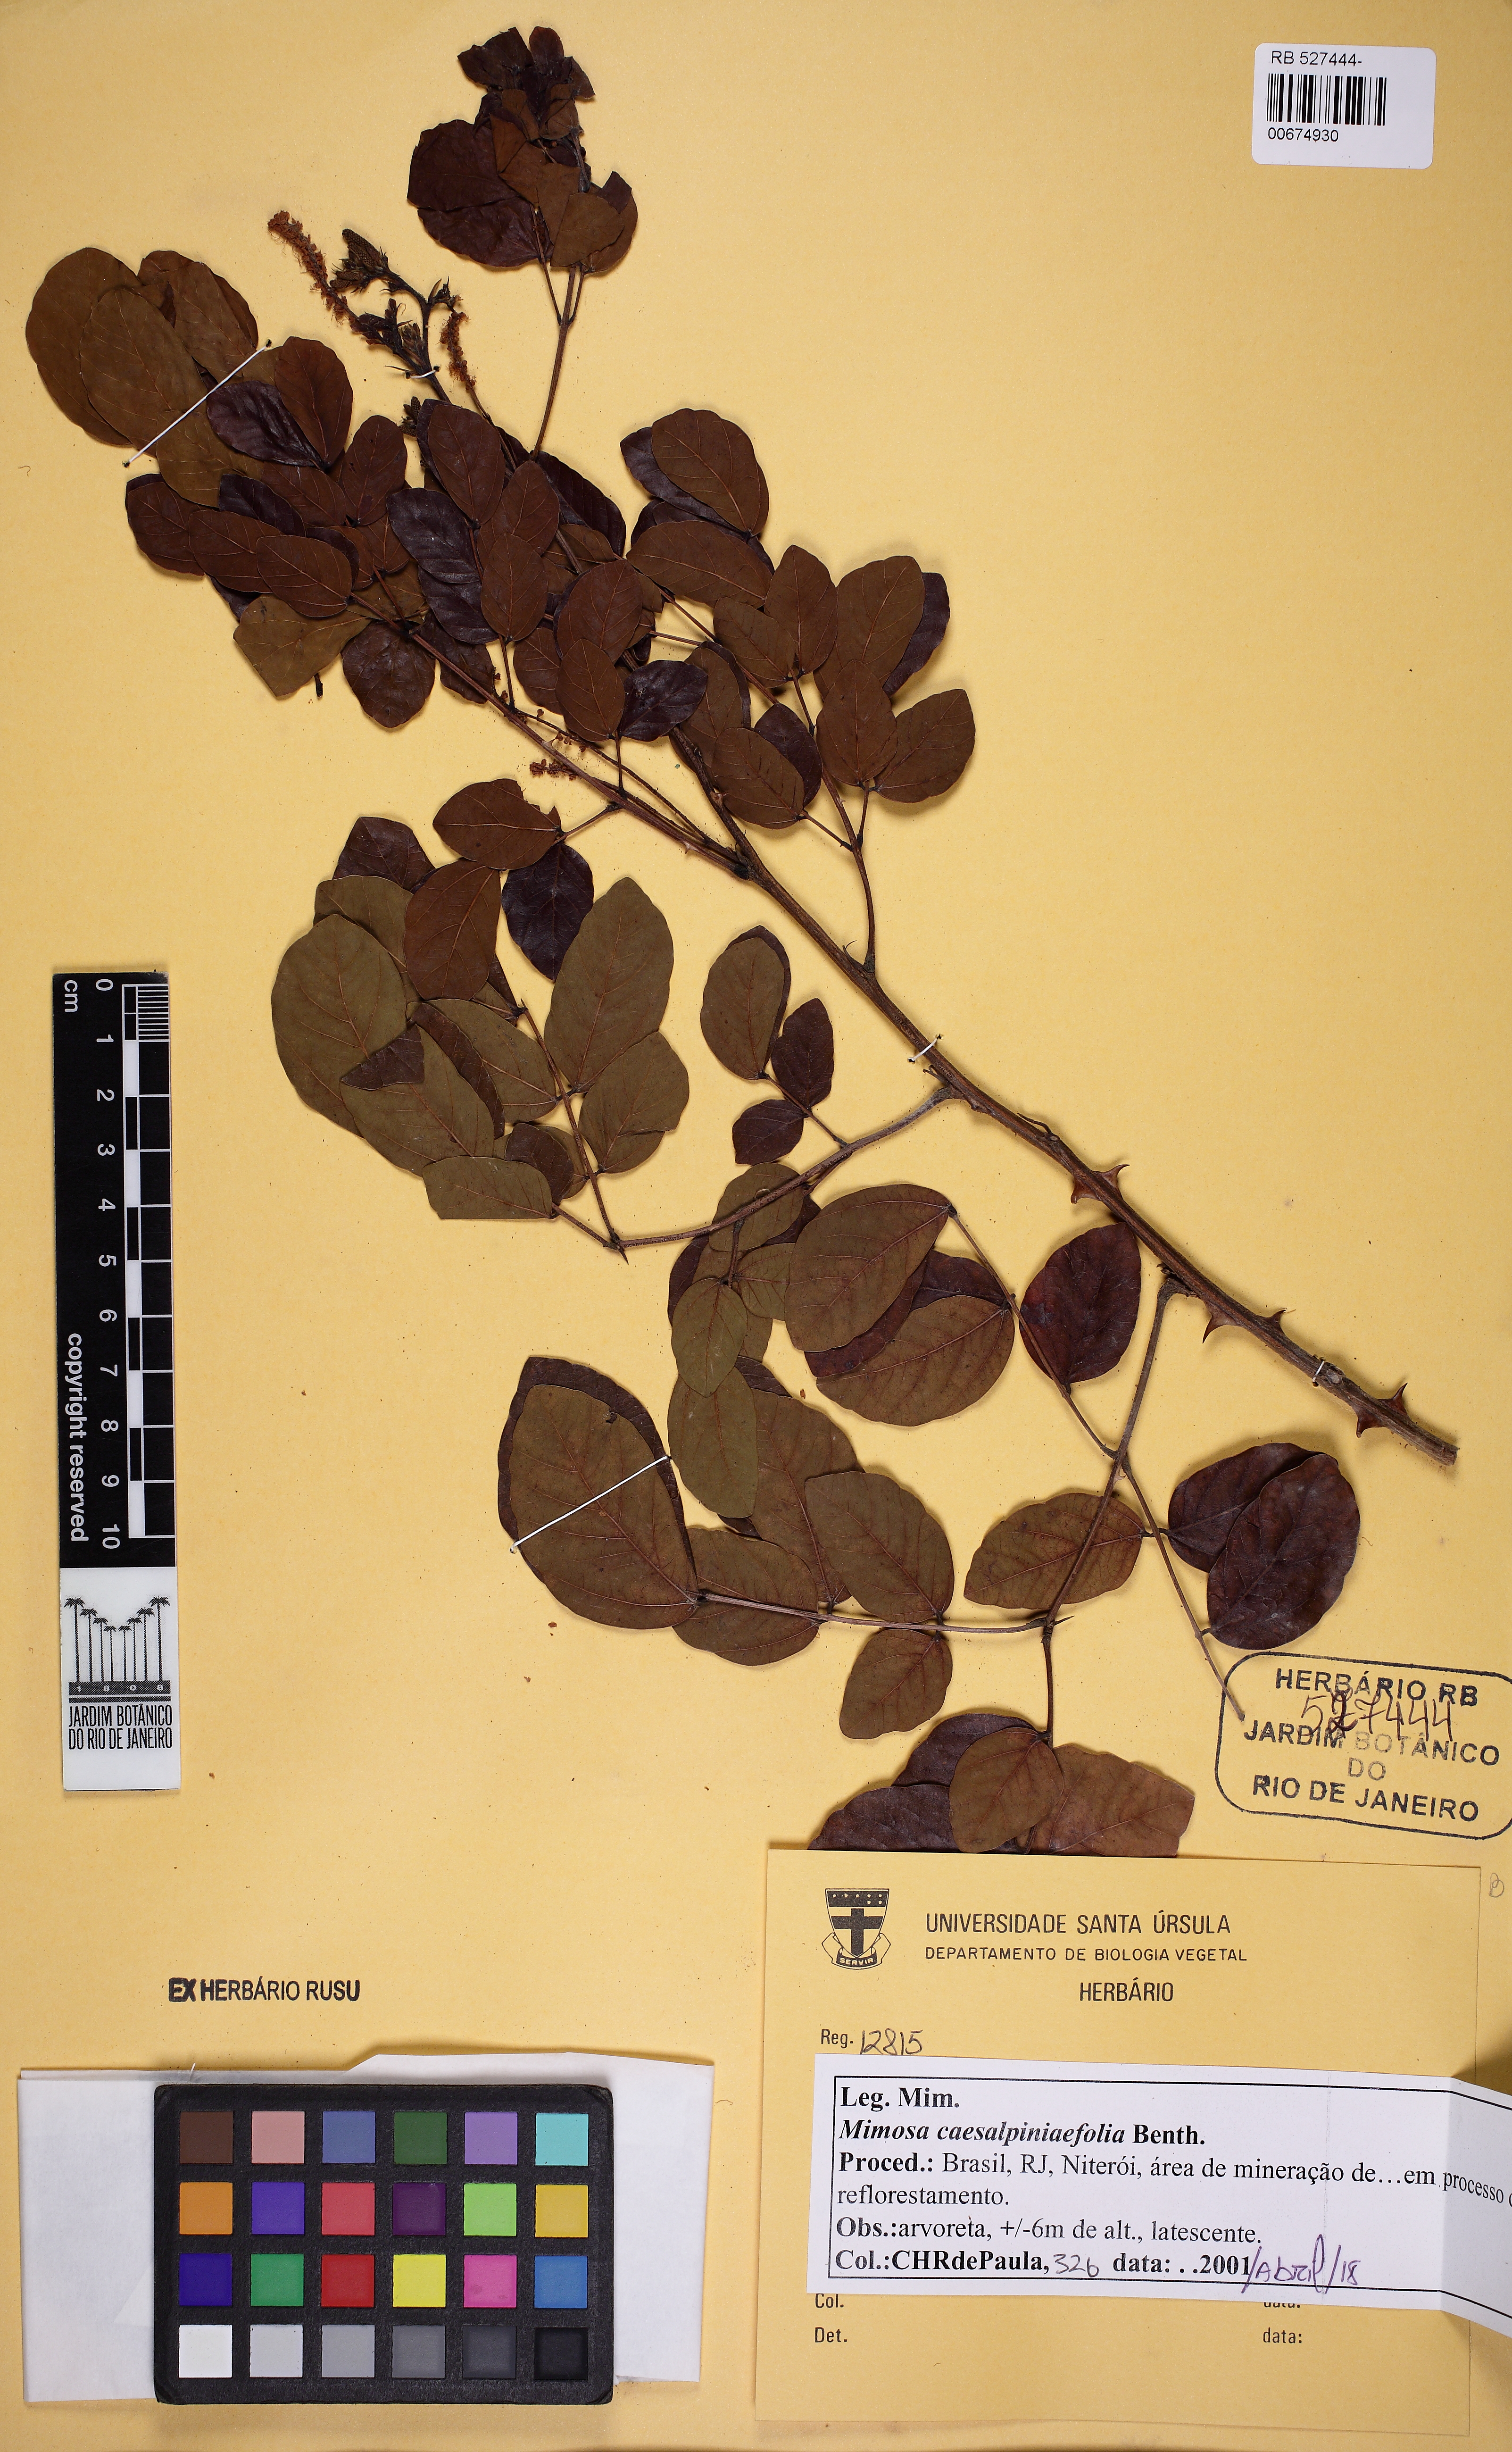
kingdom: Plantae
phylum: Tracheophyta
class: Magnoliopsida
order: Fabales
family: Fabaceae
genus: Mimosa
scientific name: Mimosa caesalpiniifolia
